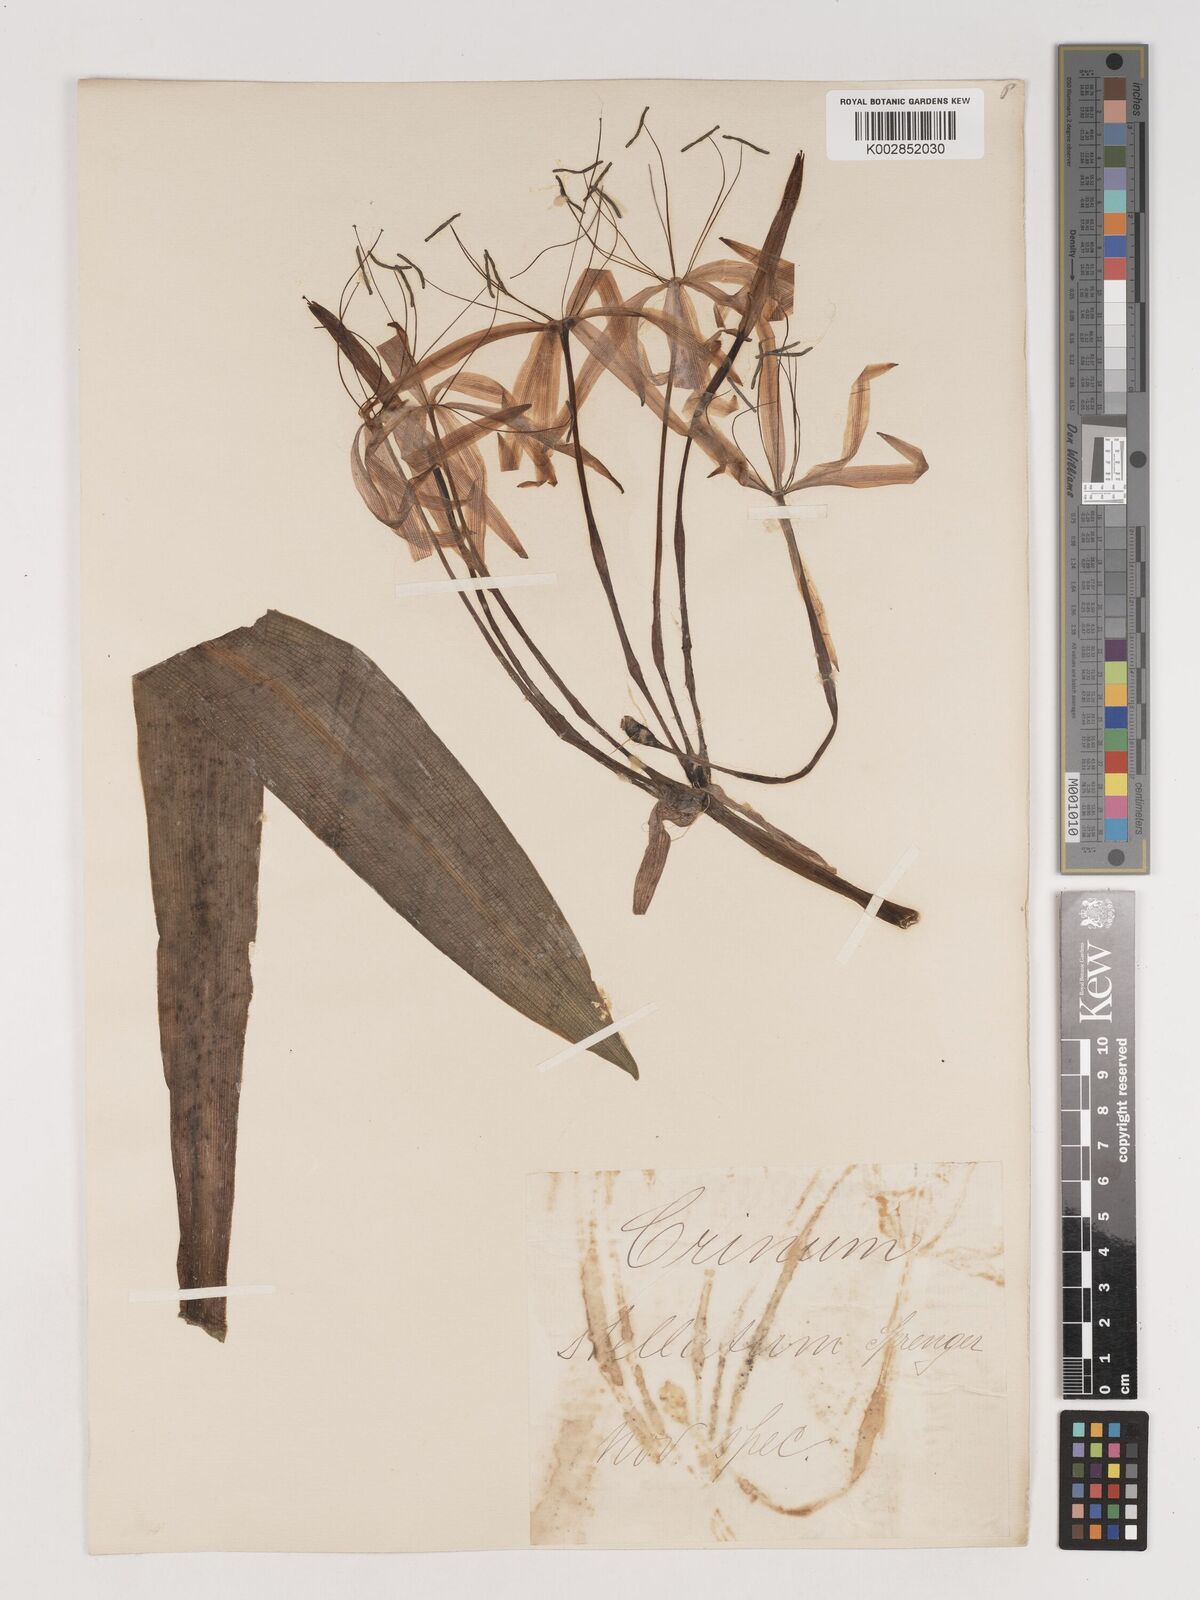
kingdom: Plantae
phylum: Tracheophyta
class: Liliopsida
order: Asparagales
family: Amaryllidaceae
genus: Crinum
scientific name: Crinum
